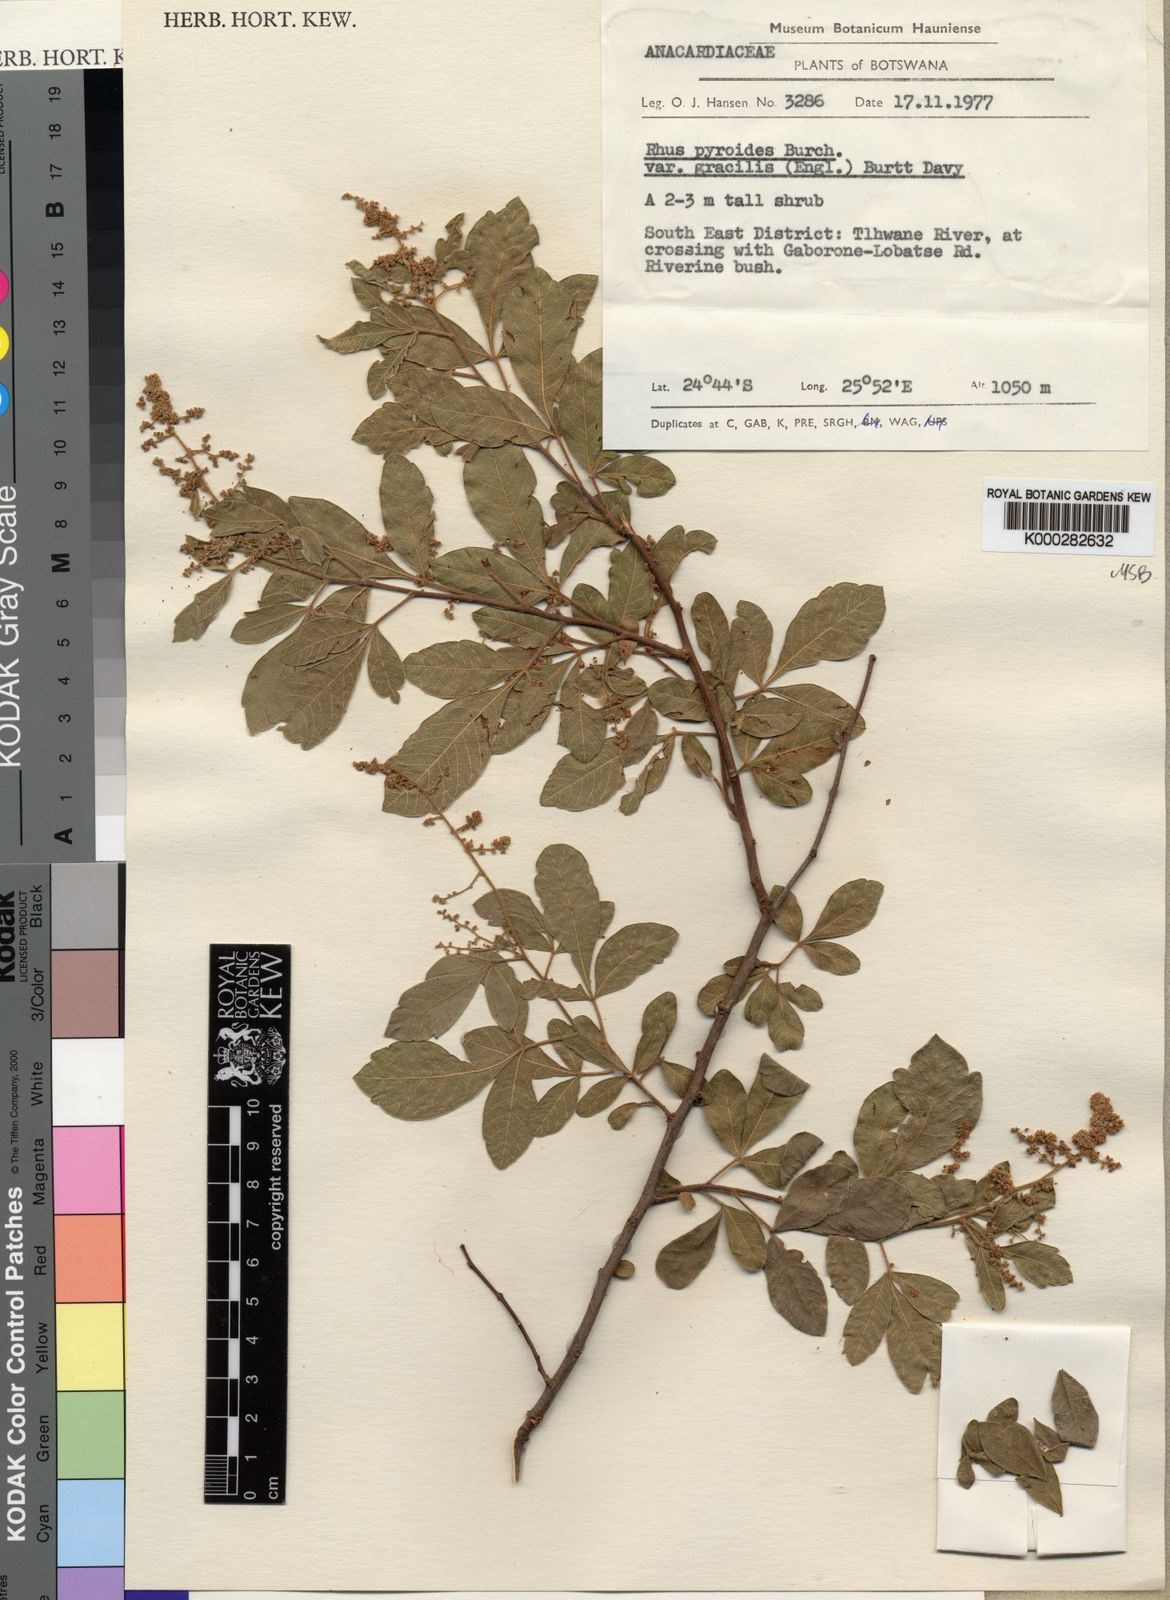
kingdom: Plantae
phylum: Tracheophyta
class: Magnoliopsida
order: Sapindales
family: Anacardiaceae
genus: Searsia
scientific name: Searsia pyroides
